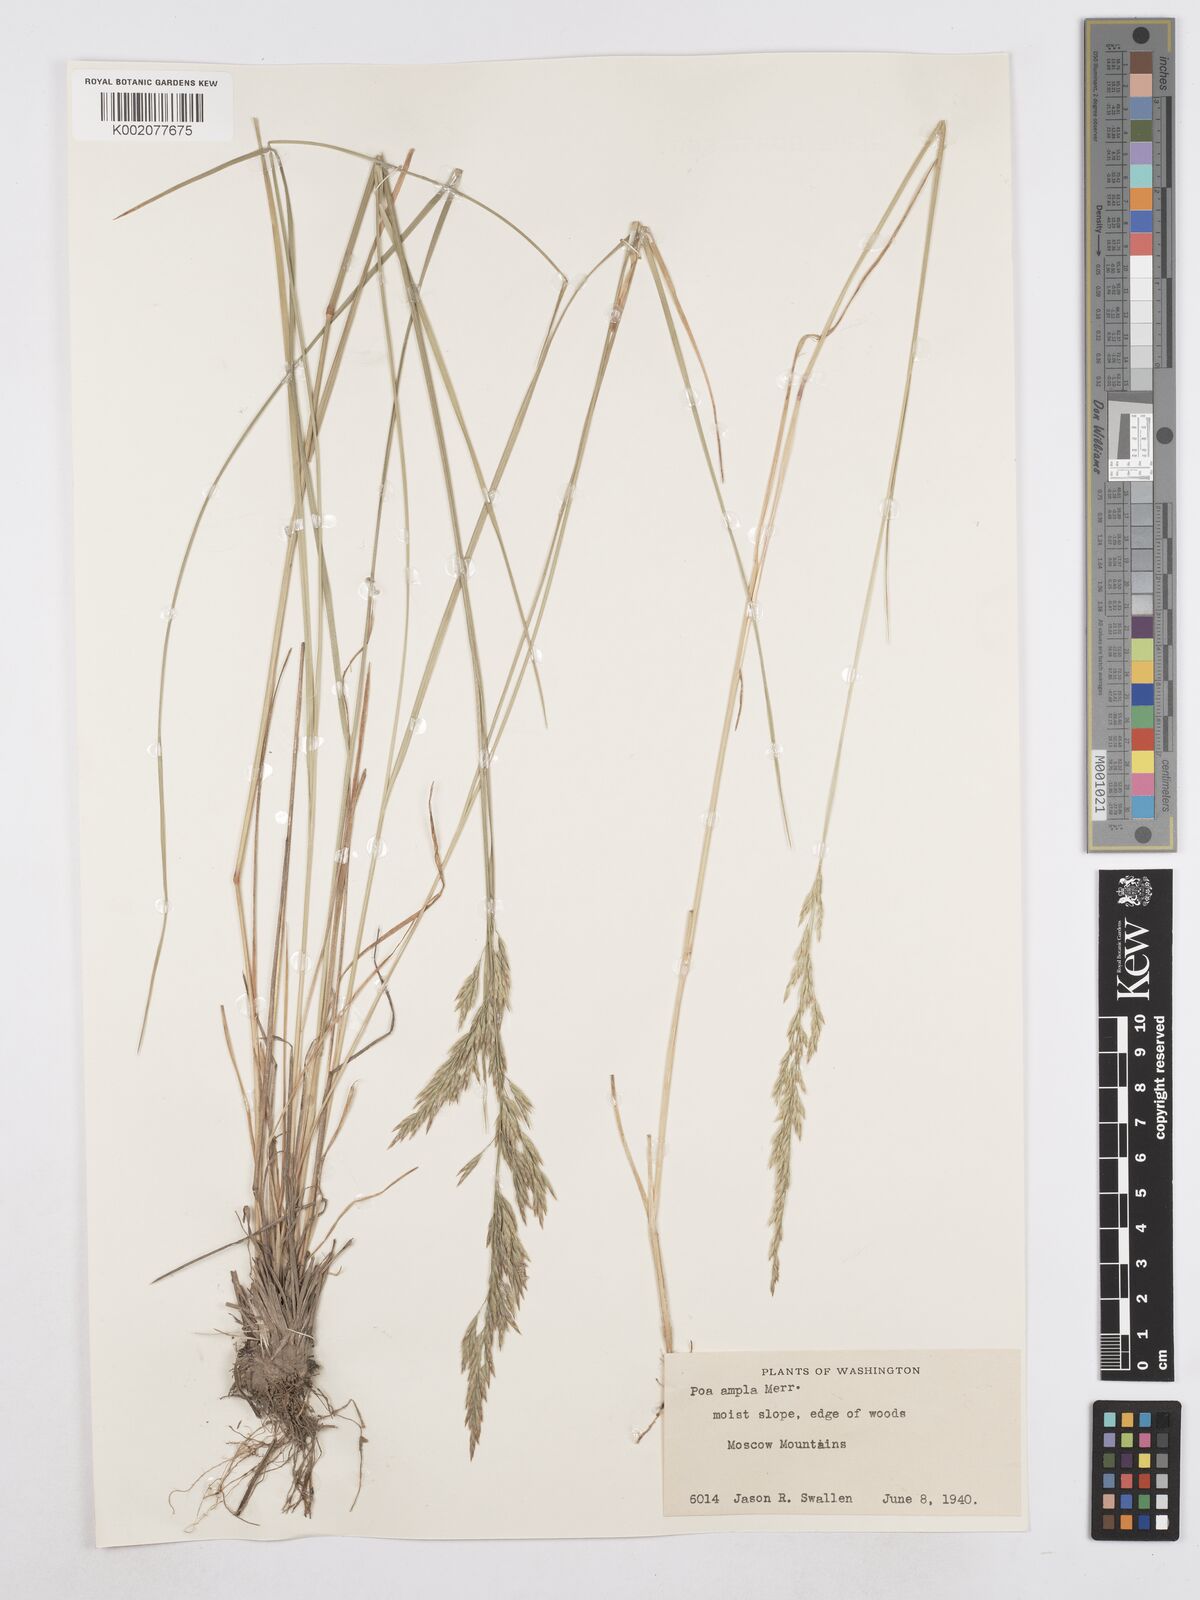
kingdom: Plantae
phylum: Tracheophyta
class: Liliopsida
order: Poales
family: Poaceae
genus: Poa
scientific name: Poa secunda
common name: Sandberg bluegrass
